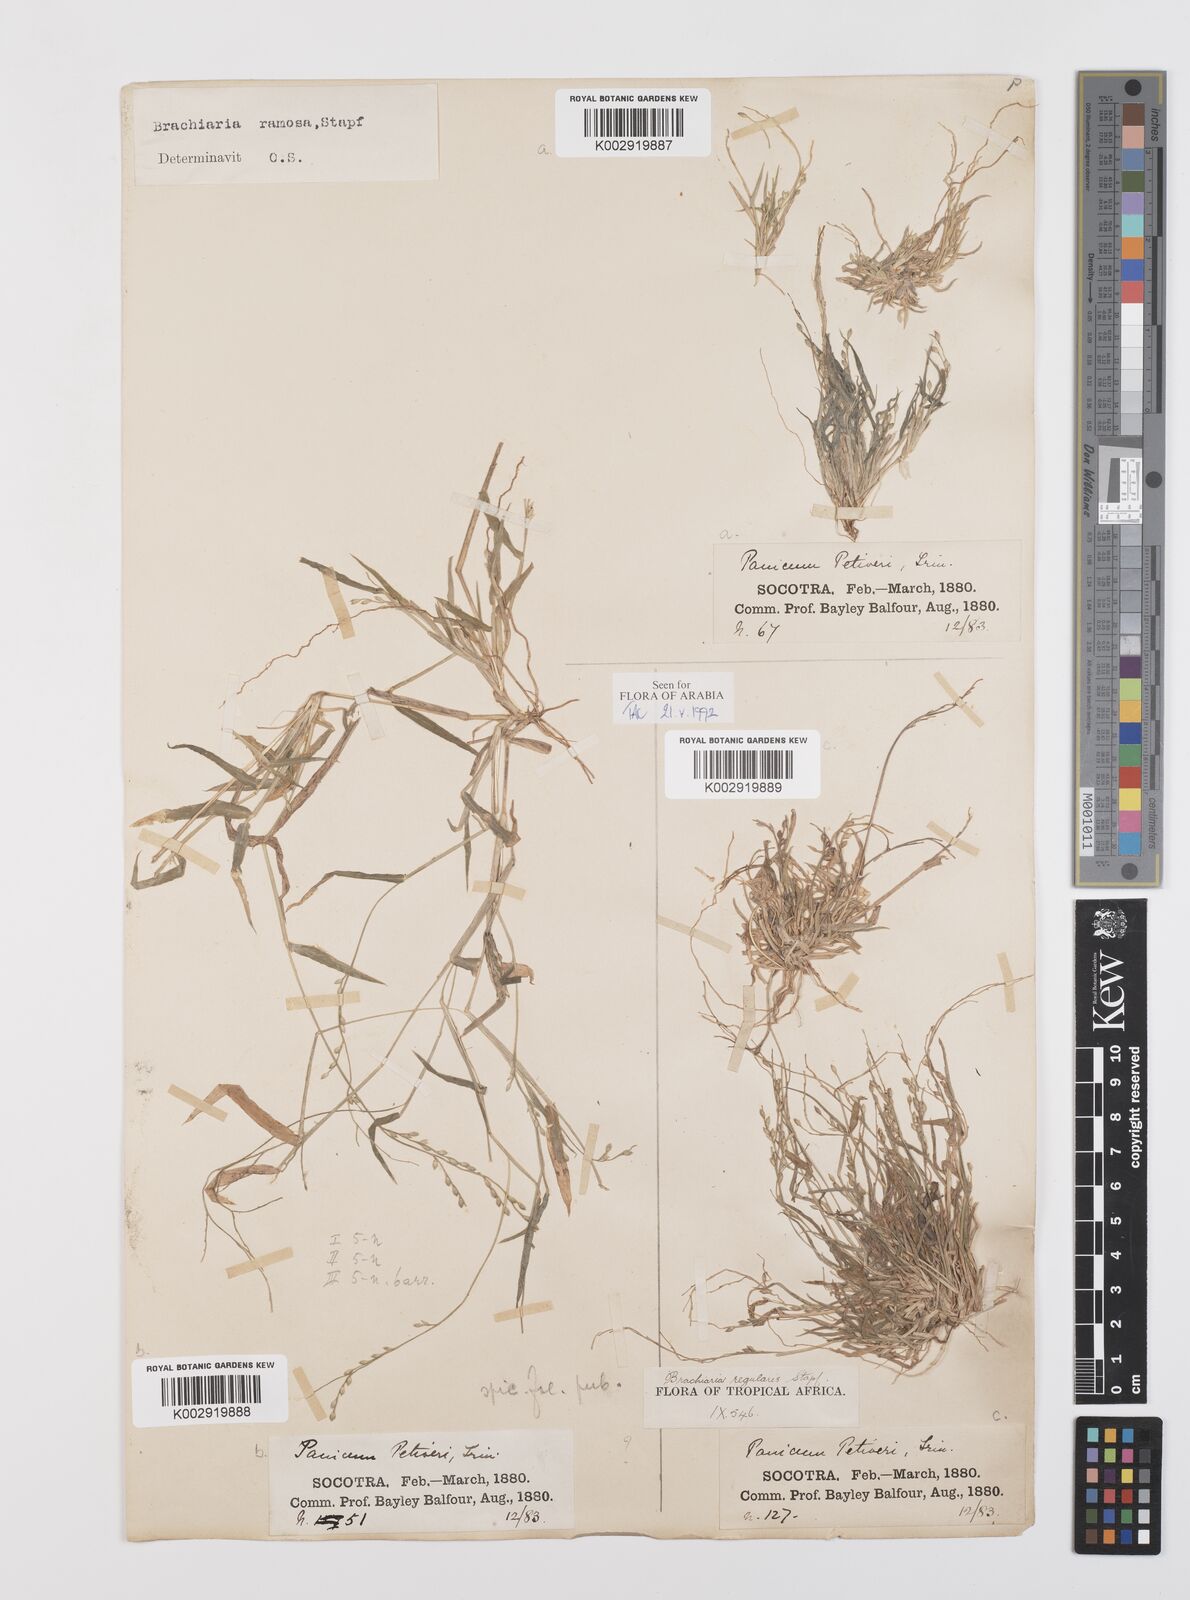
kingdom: Plantae
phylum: Tracheophyta
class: Liliopsida
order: Poales
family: Poaceae
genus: Urochloa
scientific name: Urochloa deflexa
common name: Guinea millet
